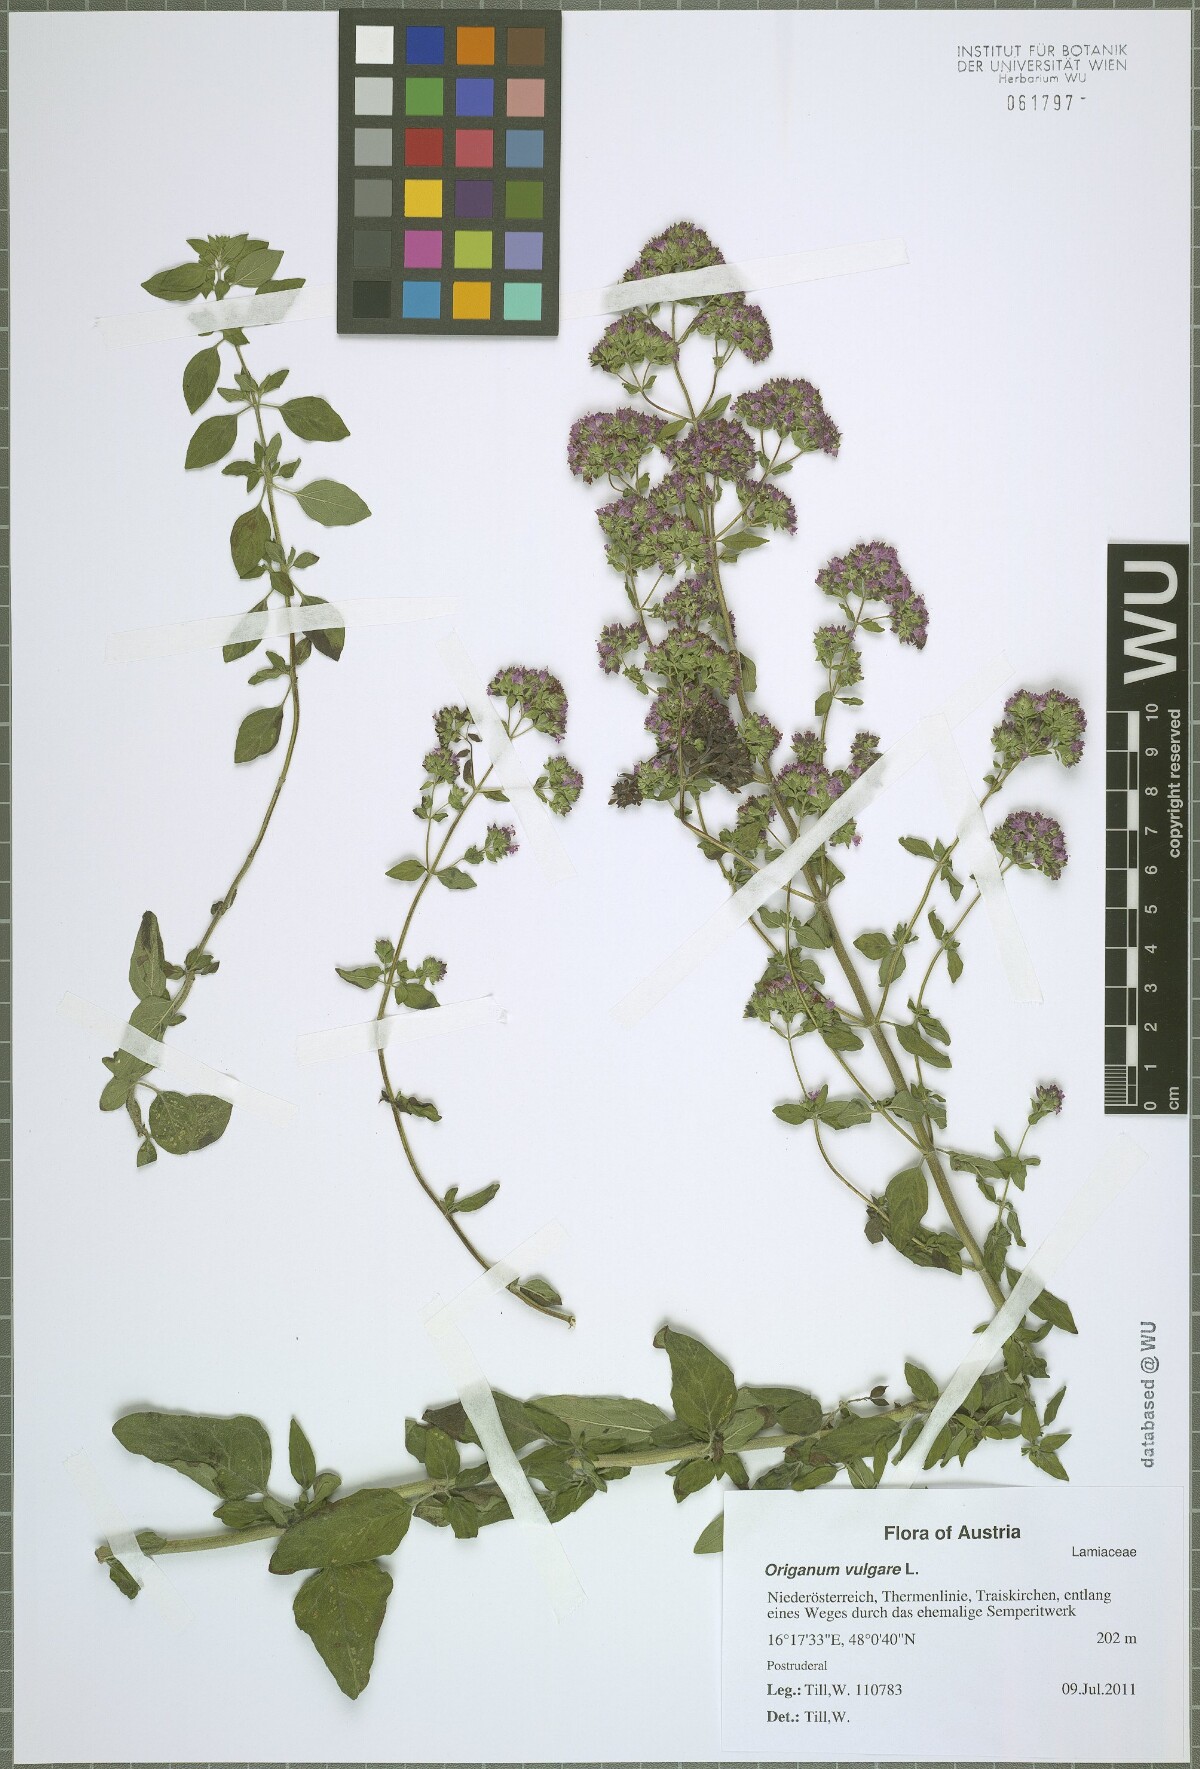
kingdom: Plantae
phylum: Tracheophyta
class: Magnoliopsida
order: Lamiales
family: Lamiaceae
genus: Origanum
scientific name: Origanum vulgare
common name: Wild marjoram
